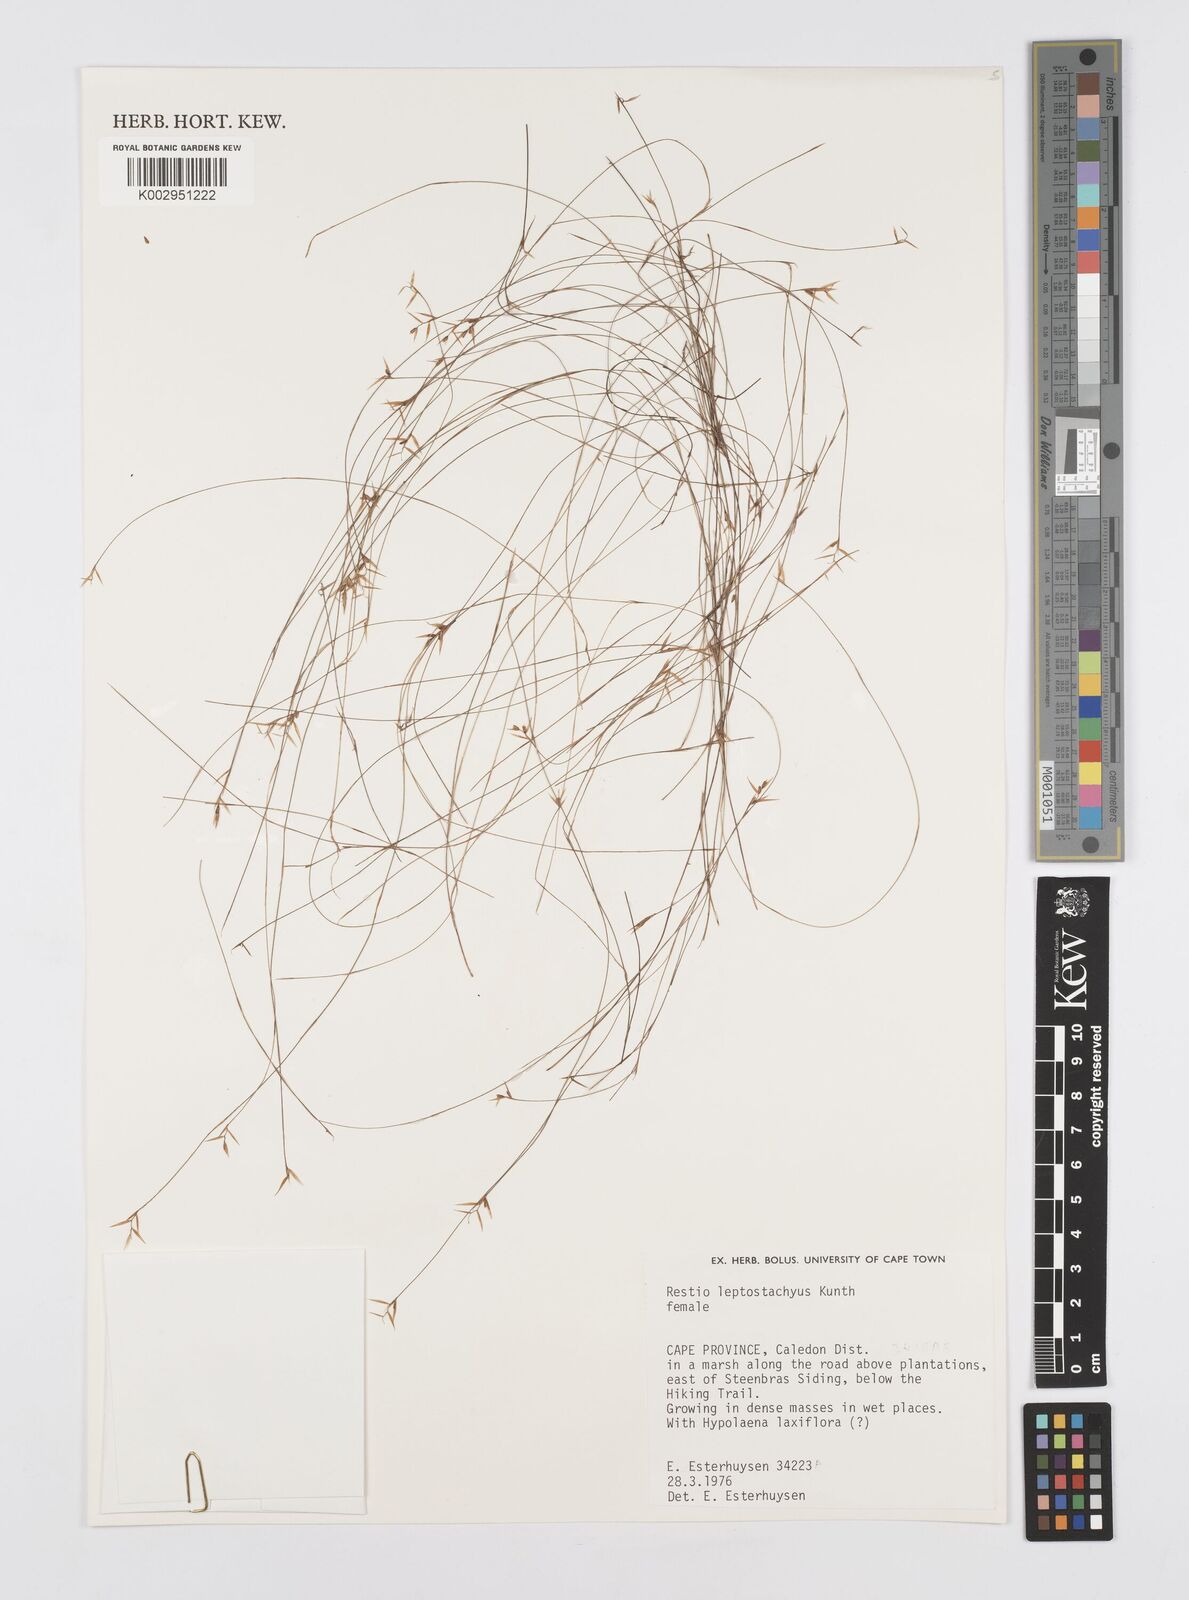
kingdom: Plantae
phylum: Tracheophyta
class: Liliopsida
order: Poales
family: Restionaceae
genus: Restio
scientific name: Restio leptostachyus
